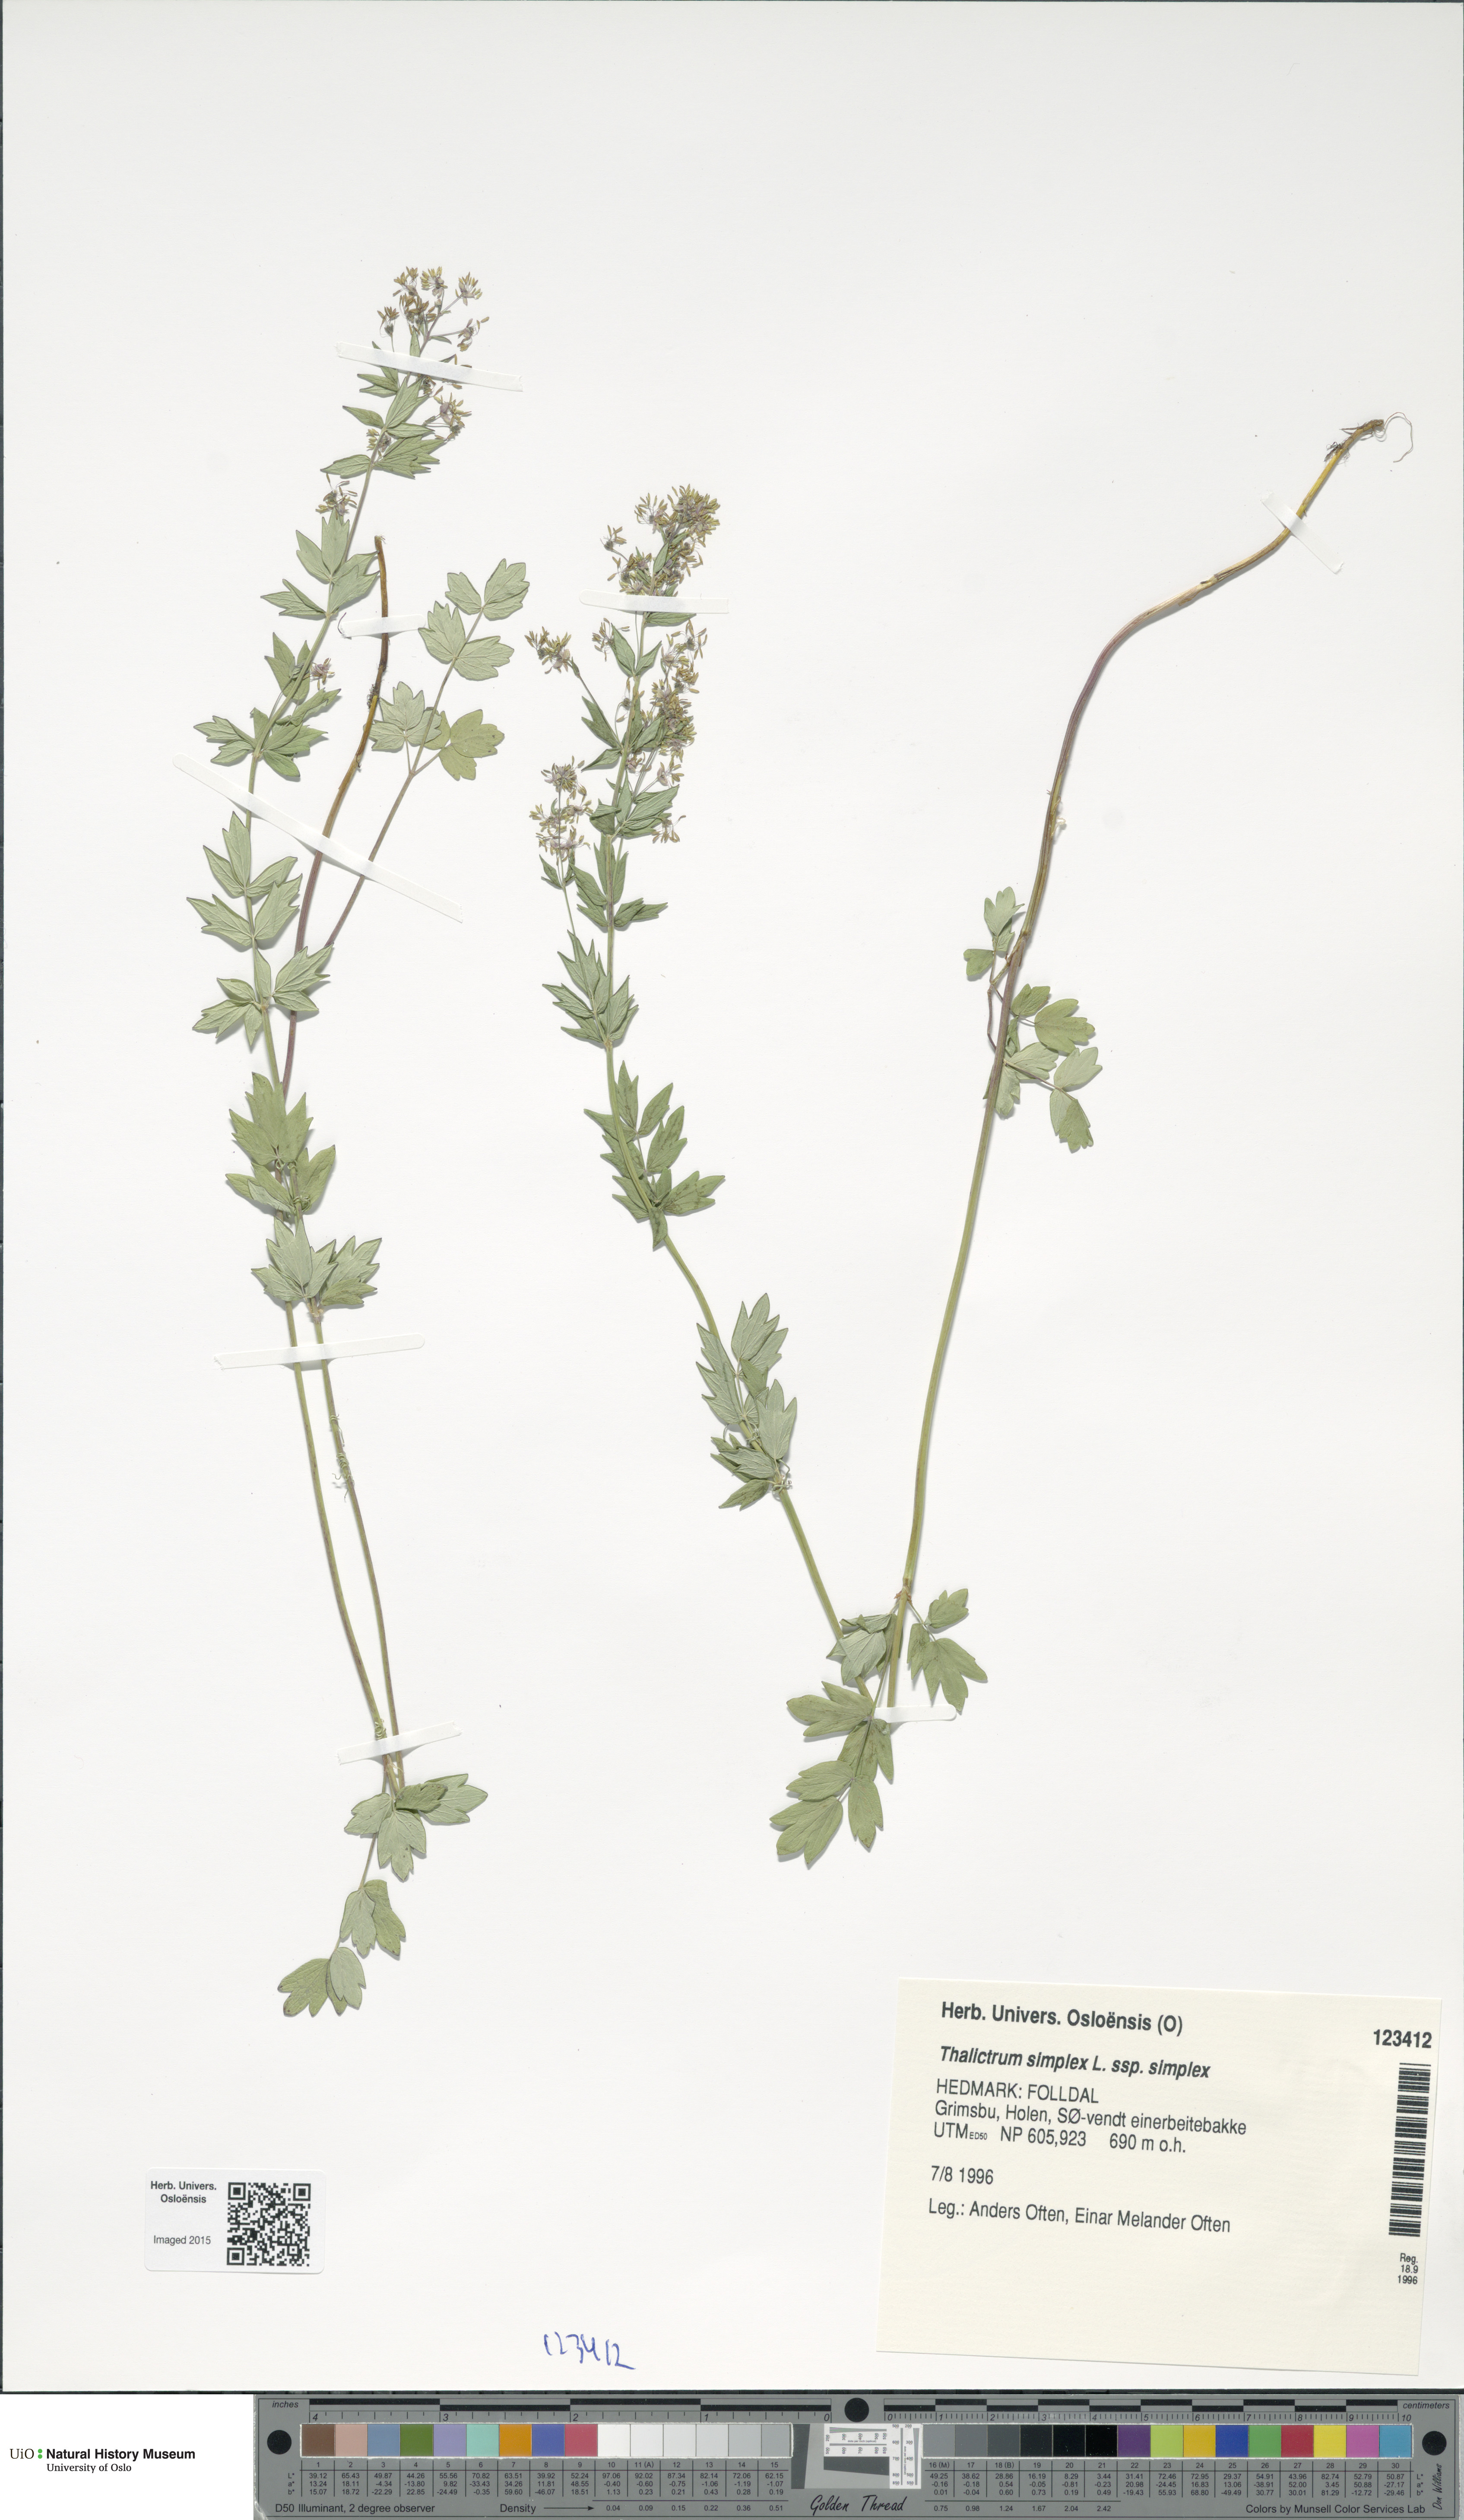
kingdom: Plantae
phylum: Tracheophyta
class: Magnoliopsida
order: Ranunculales
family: Ranunculaceae
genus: Thalictrum
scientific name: Thalictrum simplex
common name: Small meadow-rue
